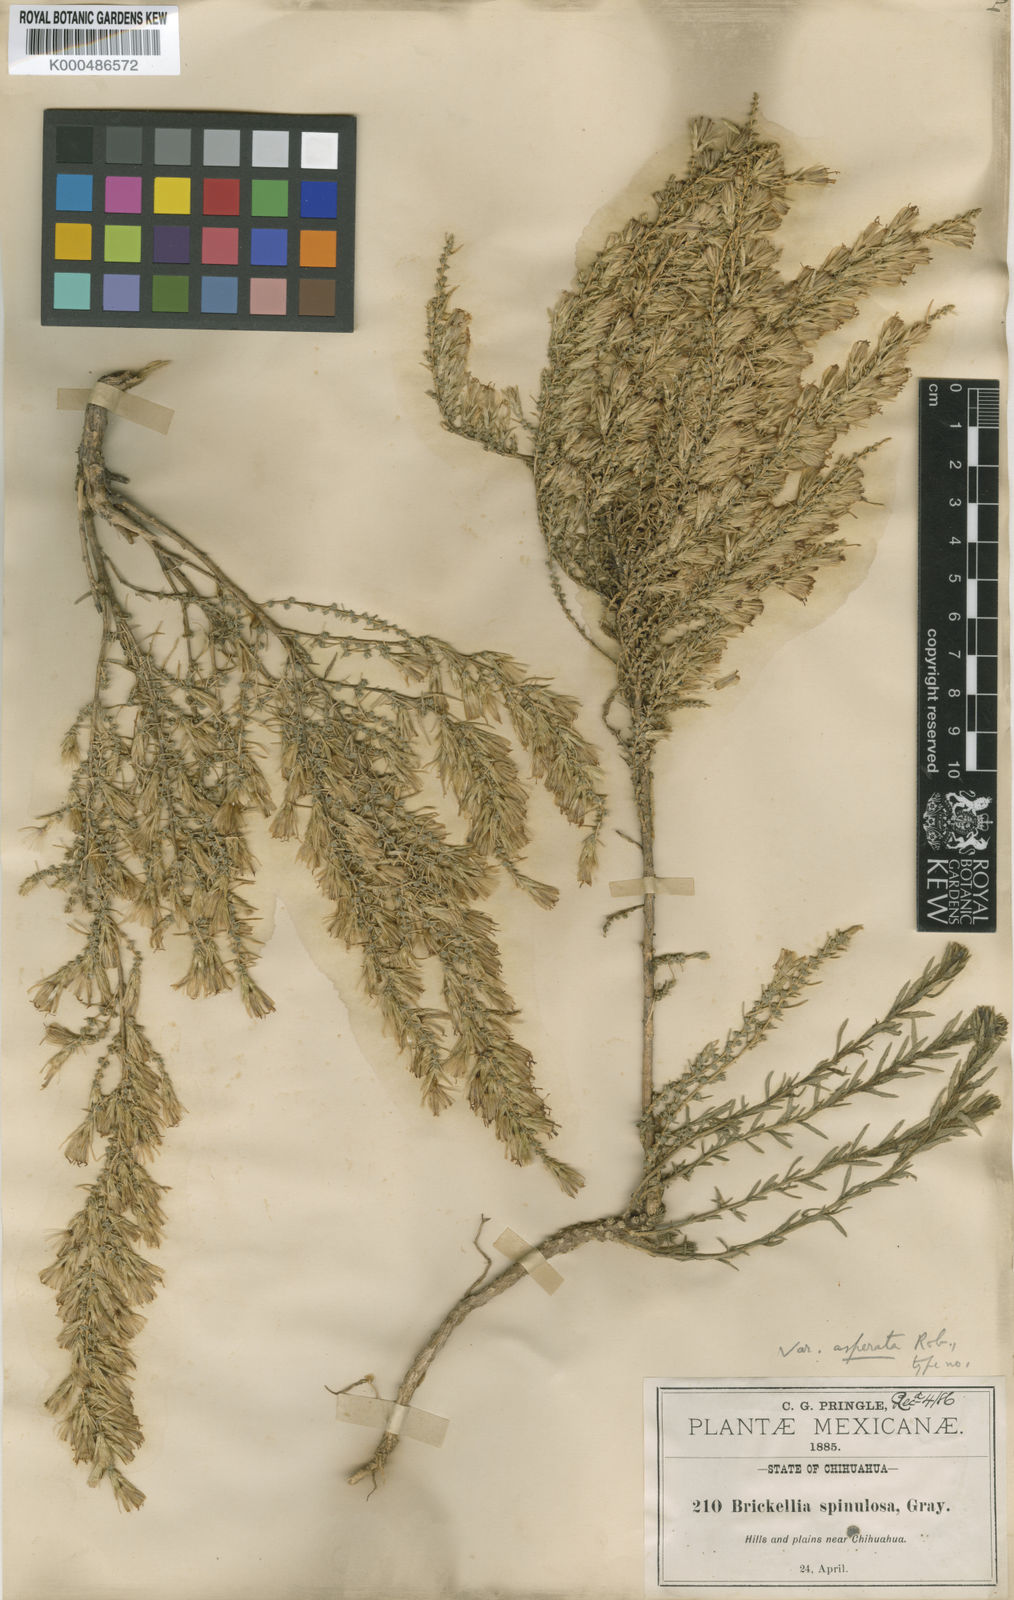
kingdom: Plantae
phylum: Tracheophyta
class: Magnoliopsida
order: Asterales
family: Asteraceae
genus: Brickellia
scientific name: Brickellia spinulosa
